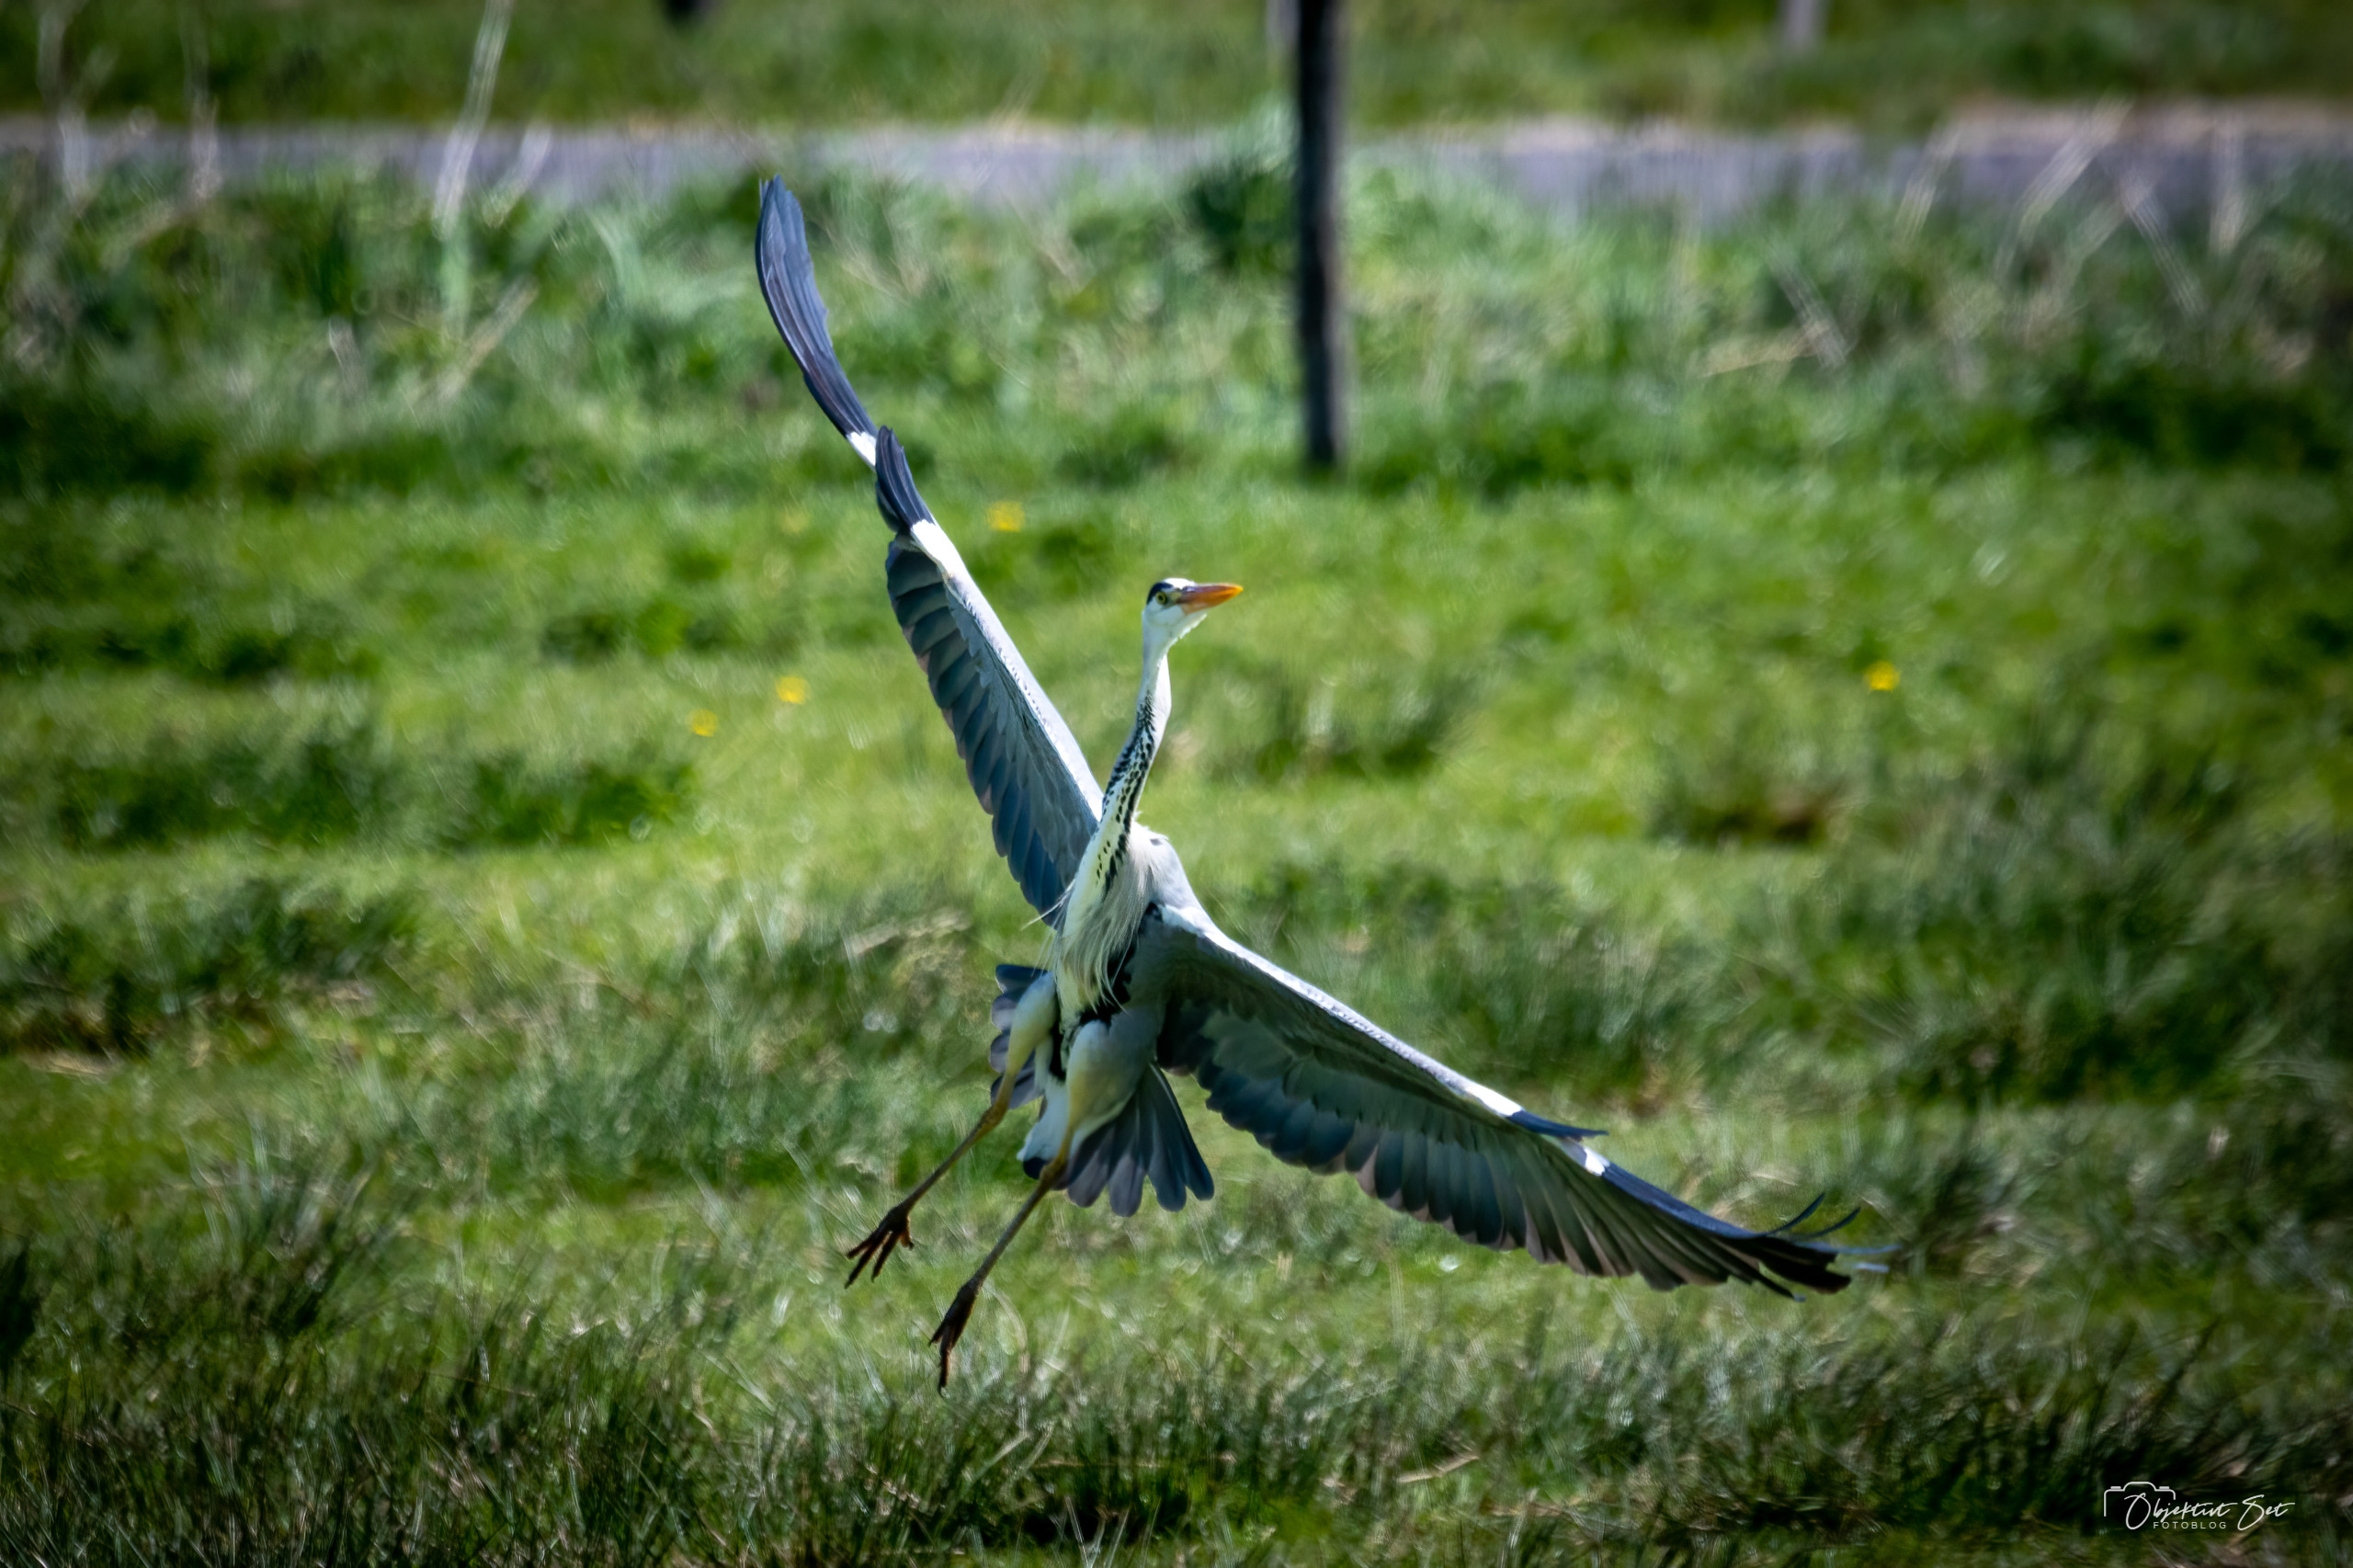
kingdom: Animalia
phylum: Chordata
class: Aves
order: Pelecaniformes
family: Ardeidae
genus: Ardea
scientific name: Ardea cinerea
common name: Fiskehejre
